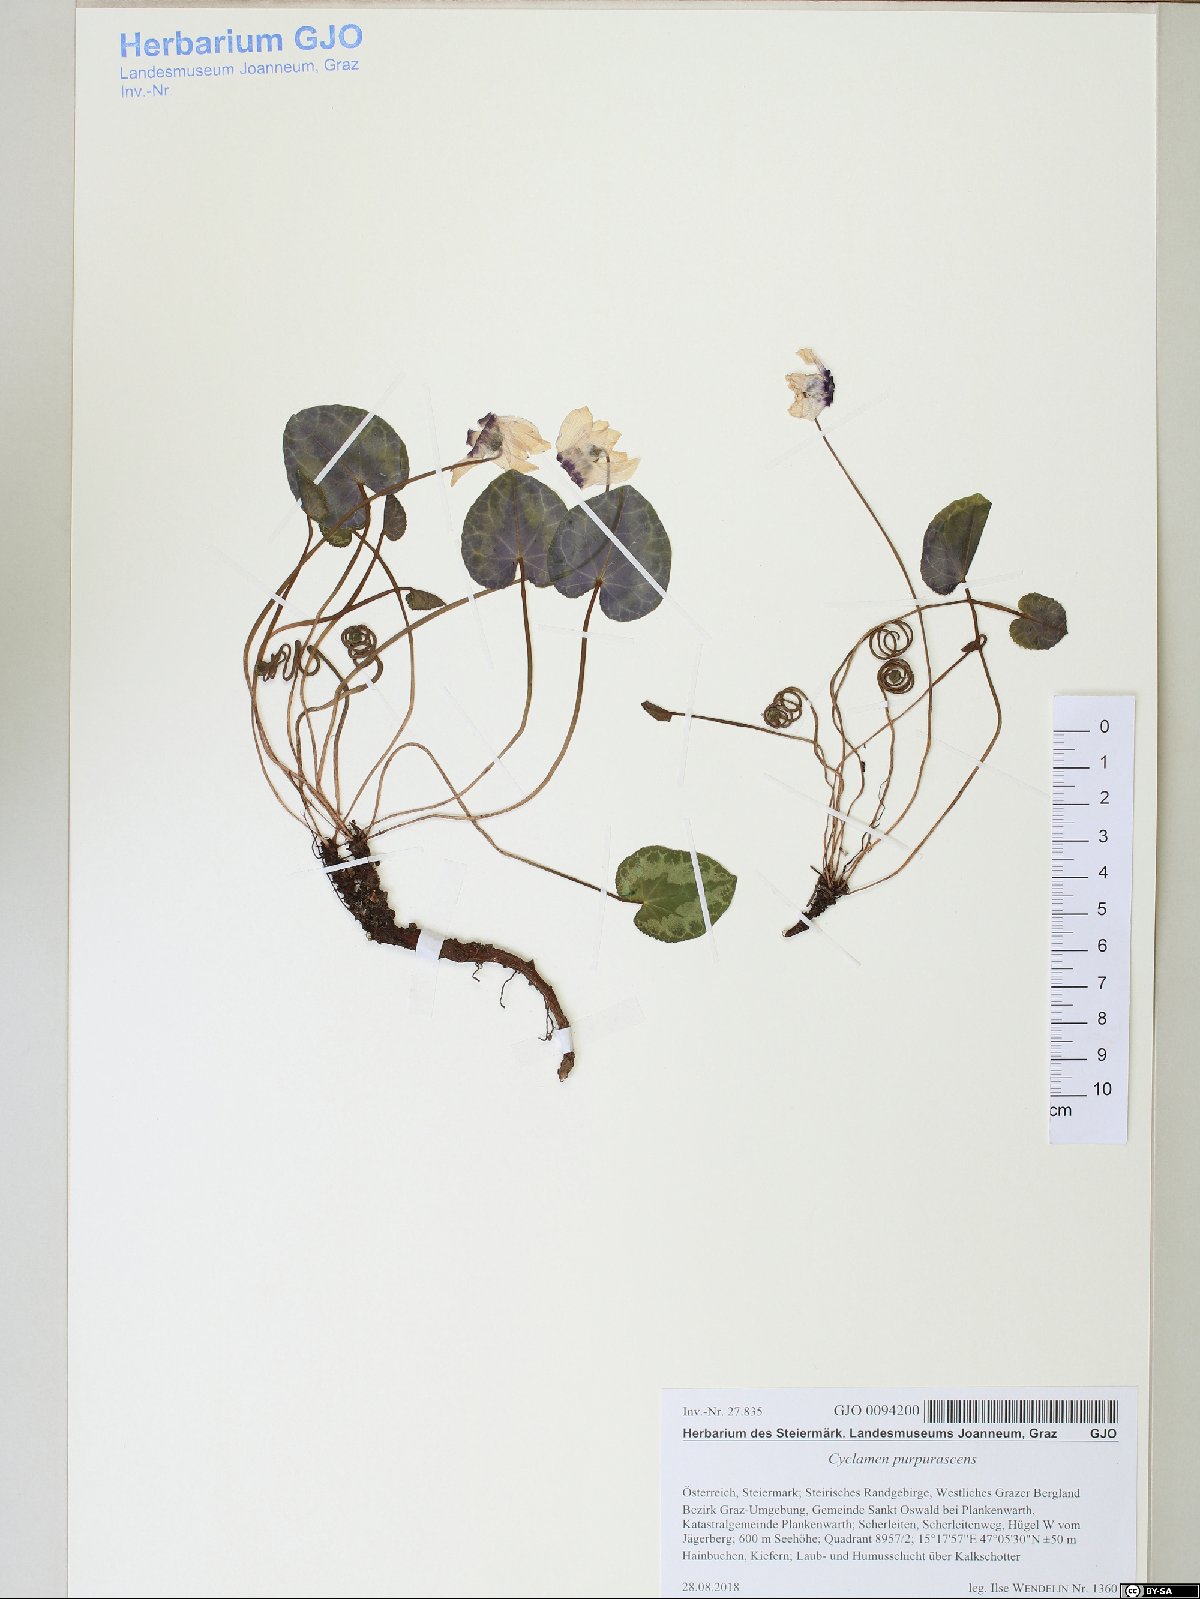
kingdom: Plantae
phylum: Tracheophyta
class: Magnoliopsida
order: Ericales
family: Primulaceae
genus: Cyclamen
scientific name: Cyclamen purpurascens
